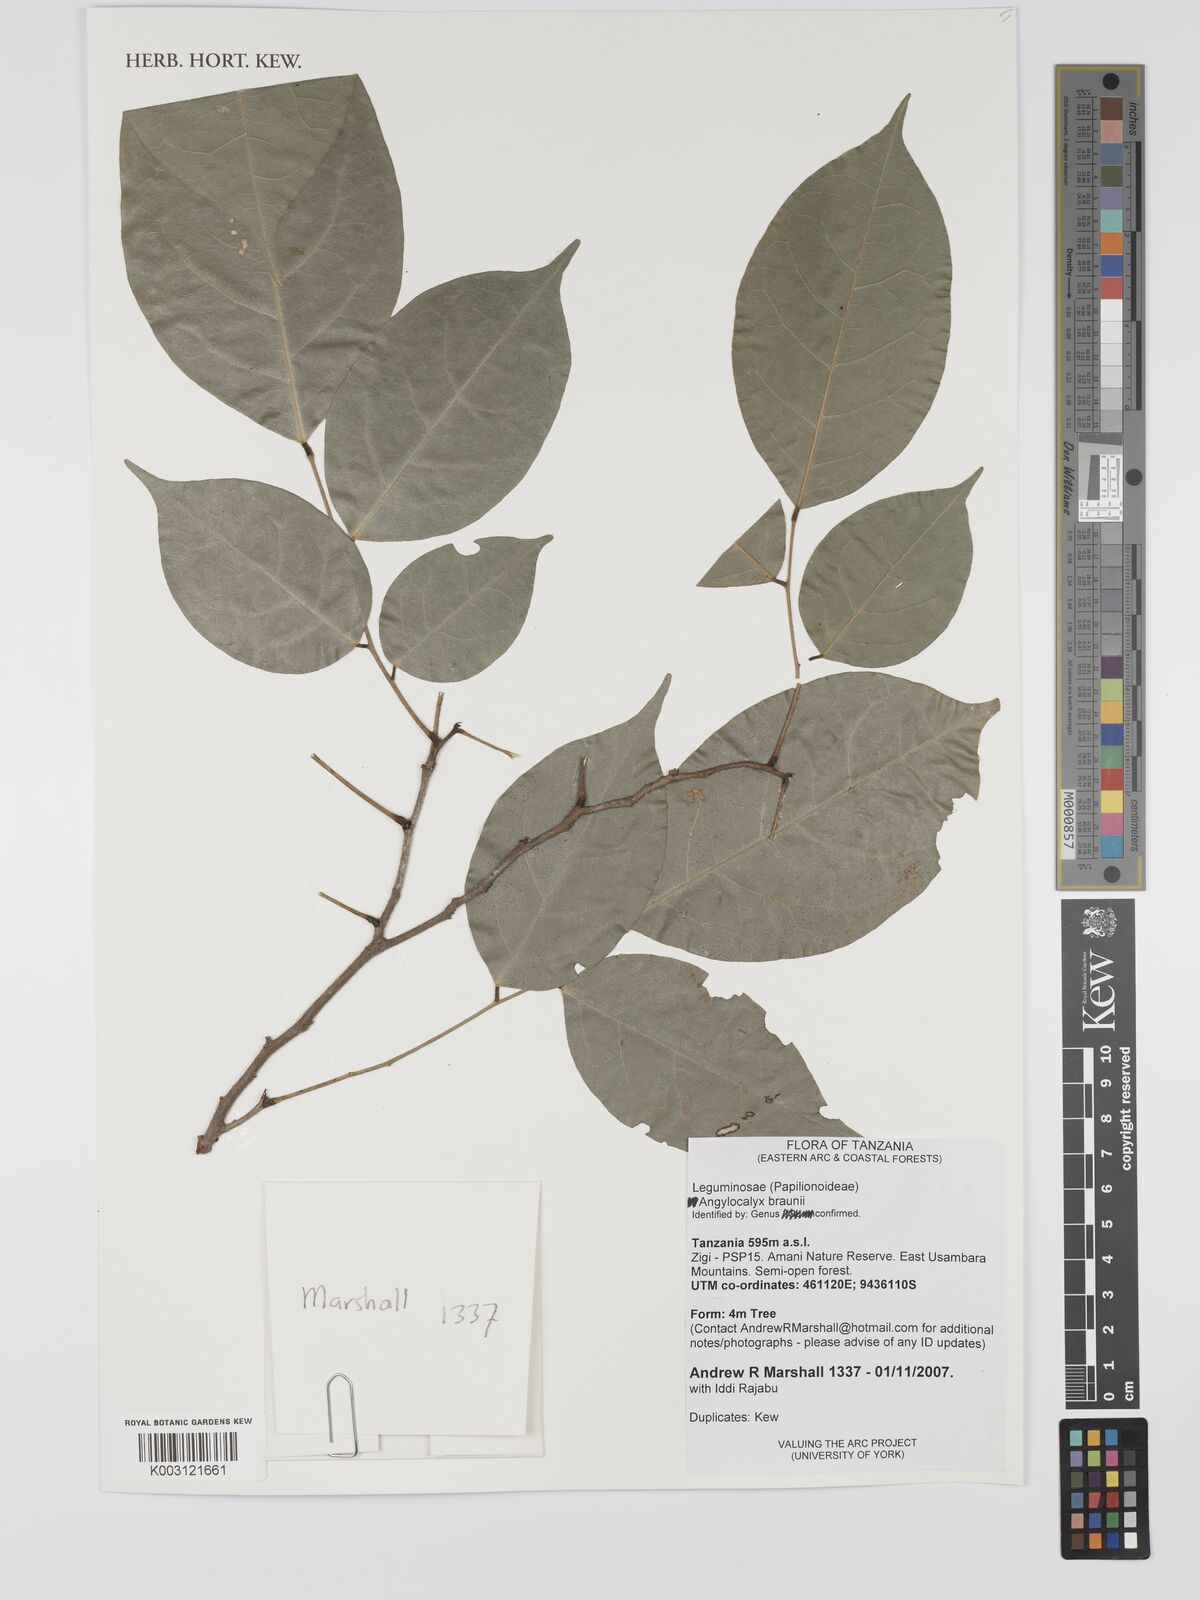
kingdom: Plantae
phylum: Tracheophyta
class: Magnoliopsida
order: Fabales
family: Fabaceae
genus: Angylocalyx
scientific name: Angylocalyx braunii
